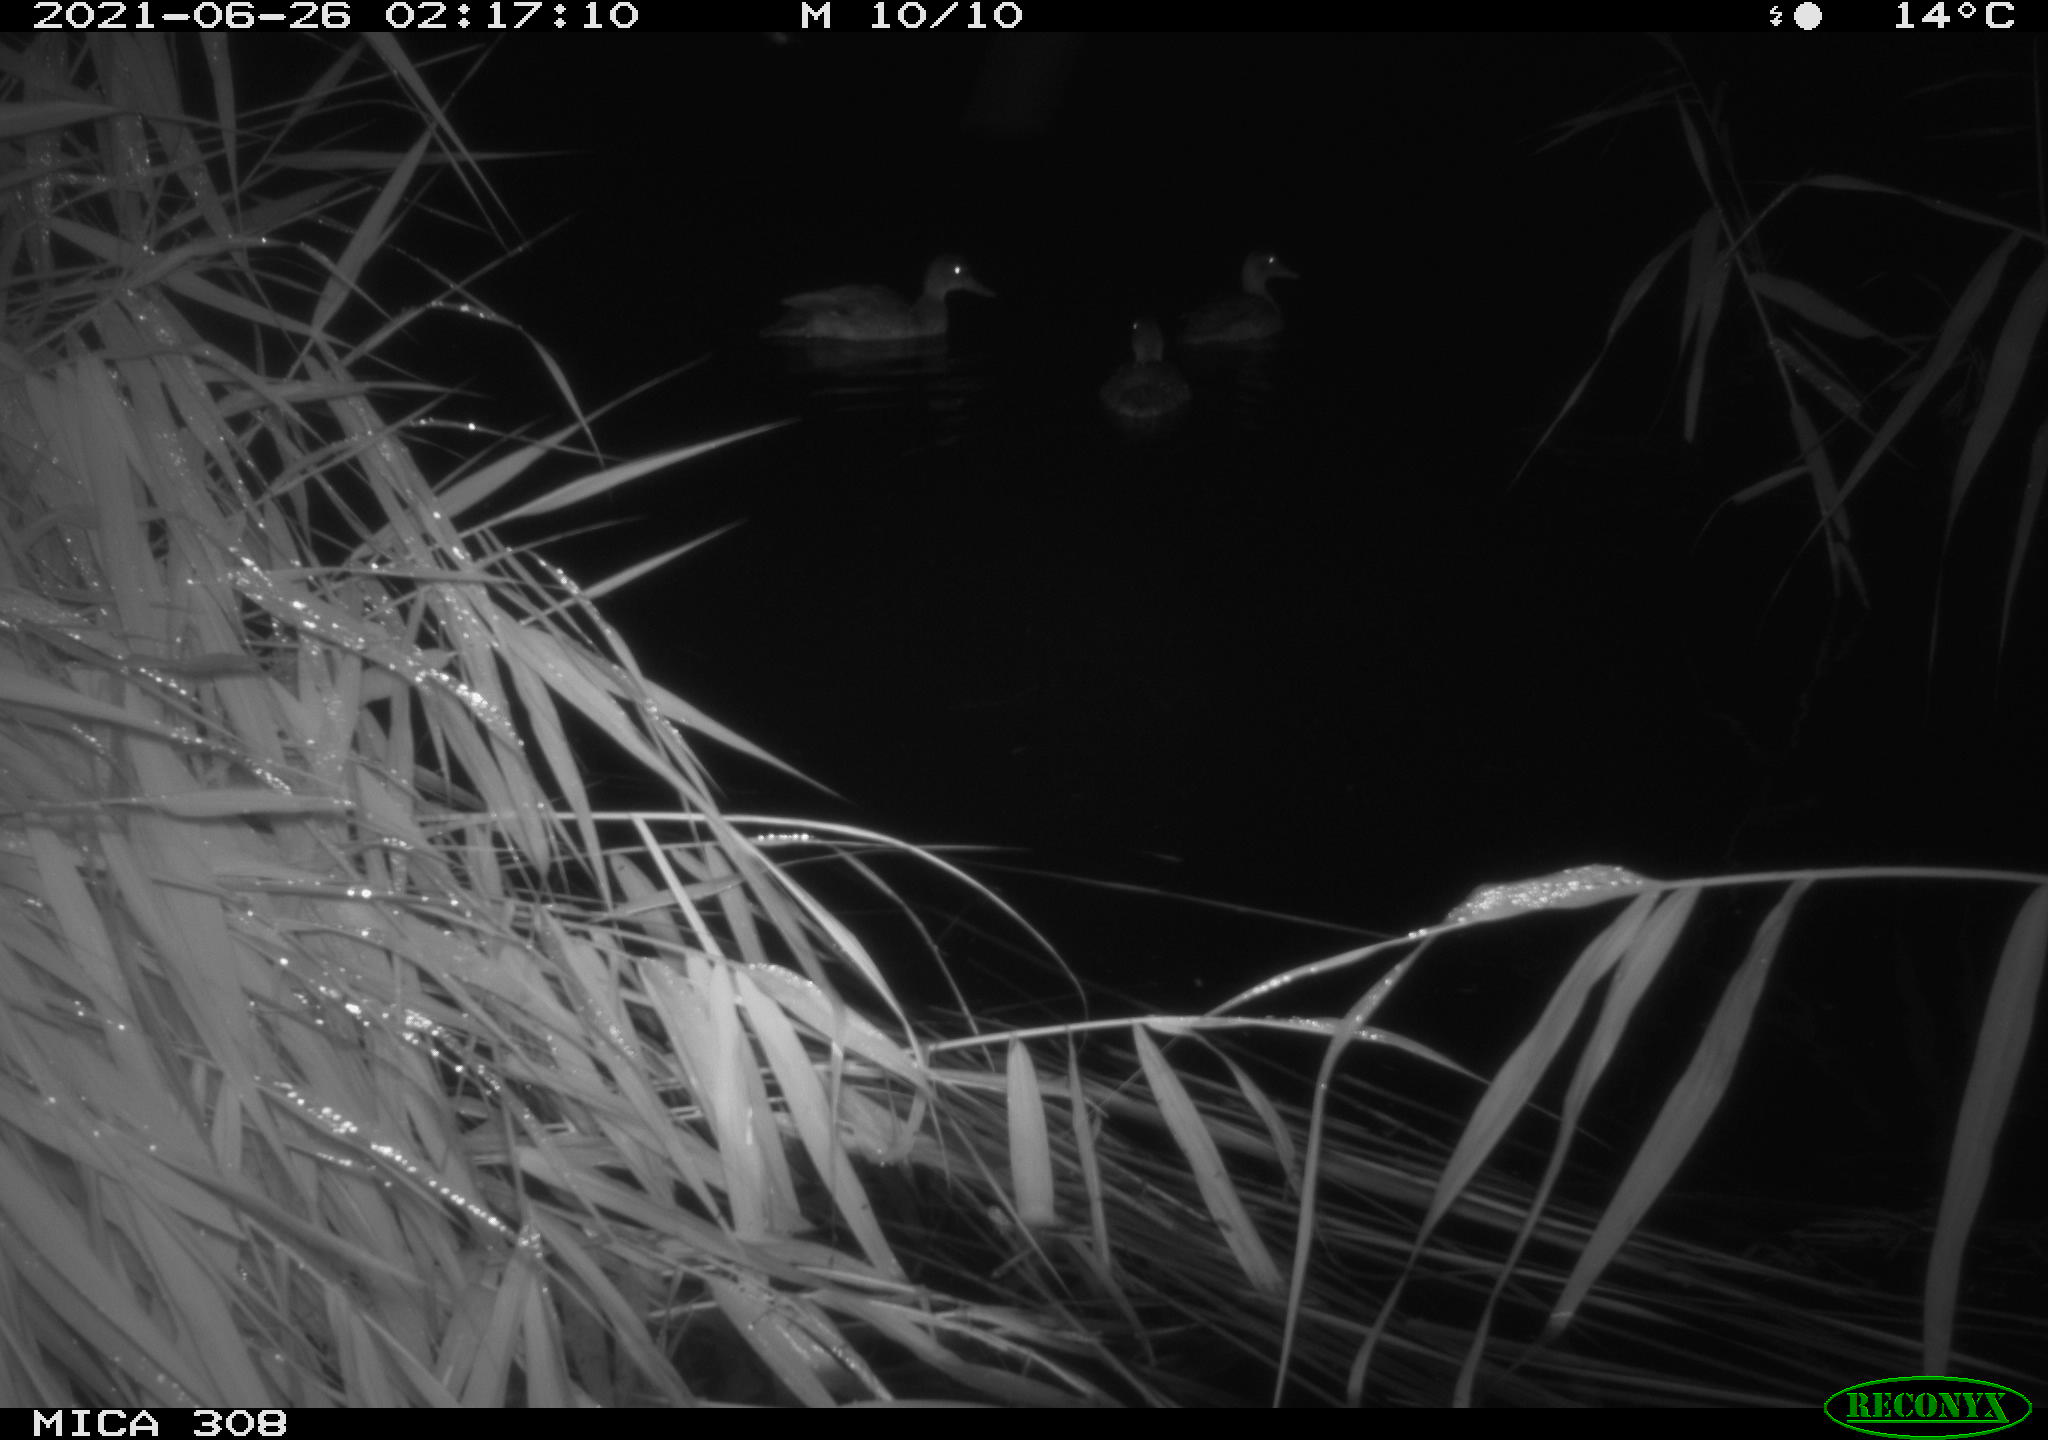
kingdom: Animalia
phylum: Chordata
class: Aves
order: Anseriformes
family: Anatidae
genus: Anas
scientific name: Anas platyrhynchos
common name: Mallard
